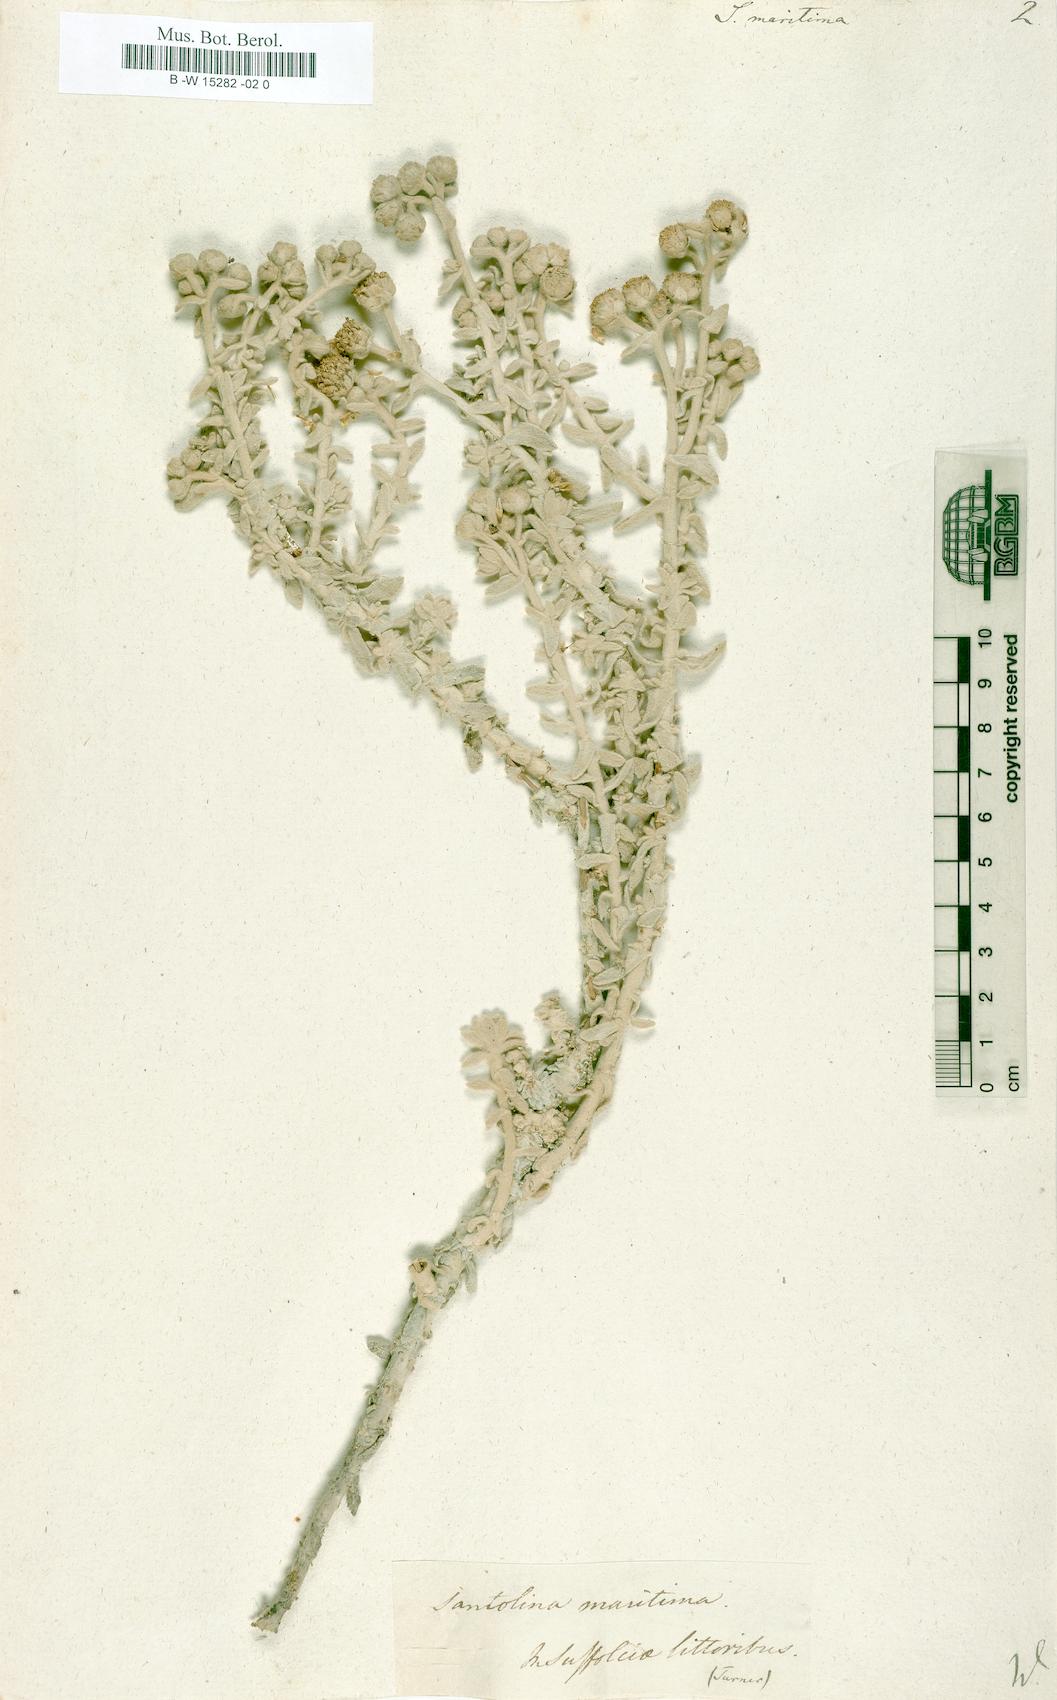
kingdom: Plantae
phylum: Tracheophyta
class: Magnoliopsida
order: Asterales
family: Asteraceae
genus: Achillea
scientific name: Achillea maritima
